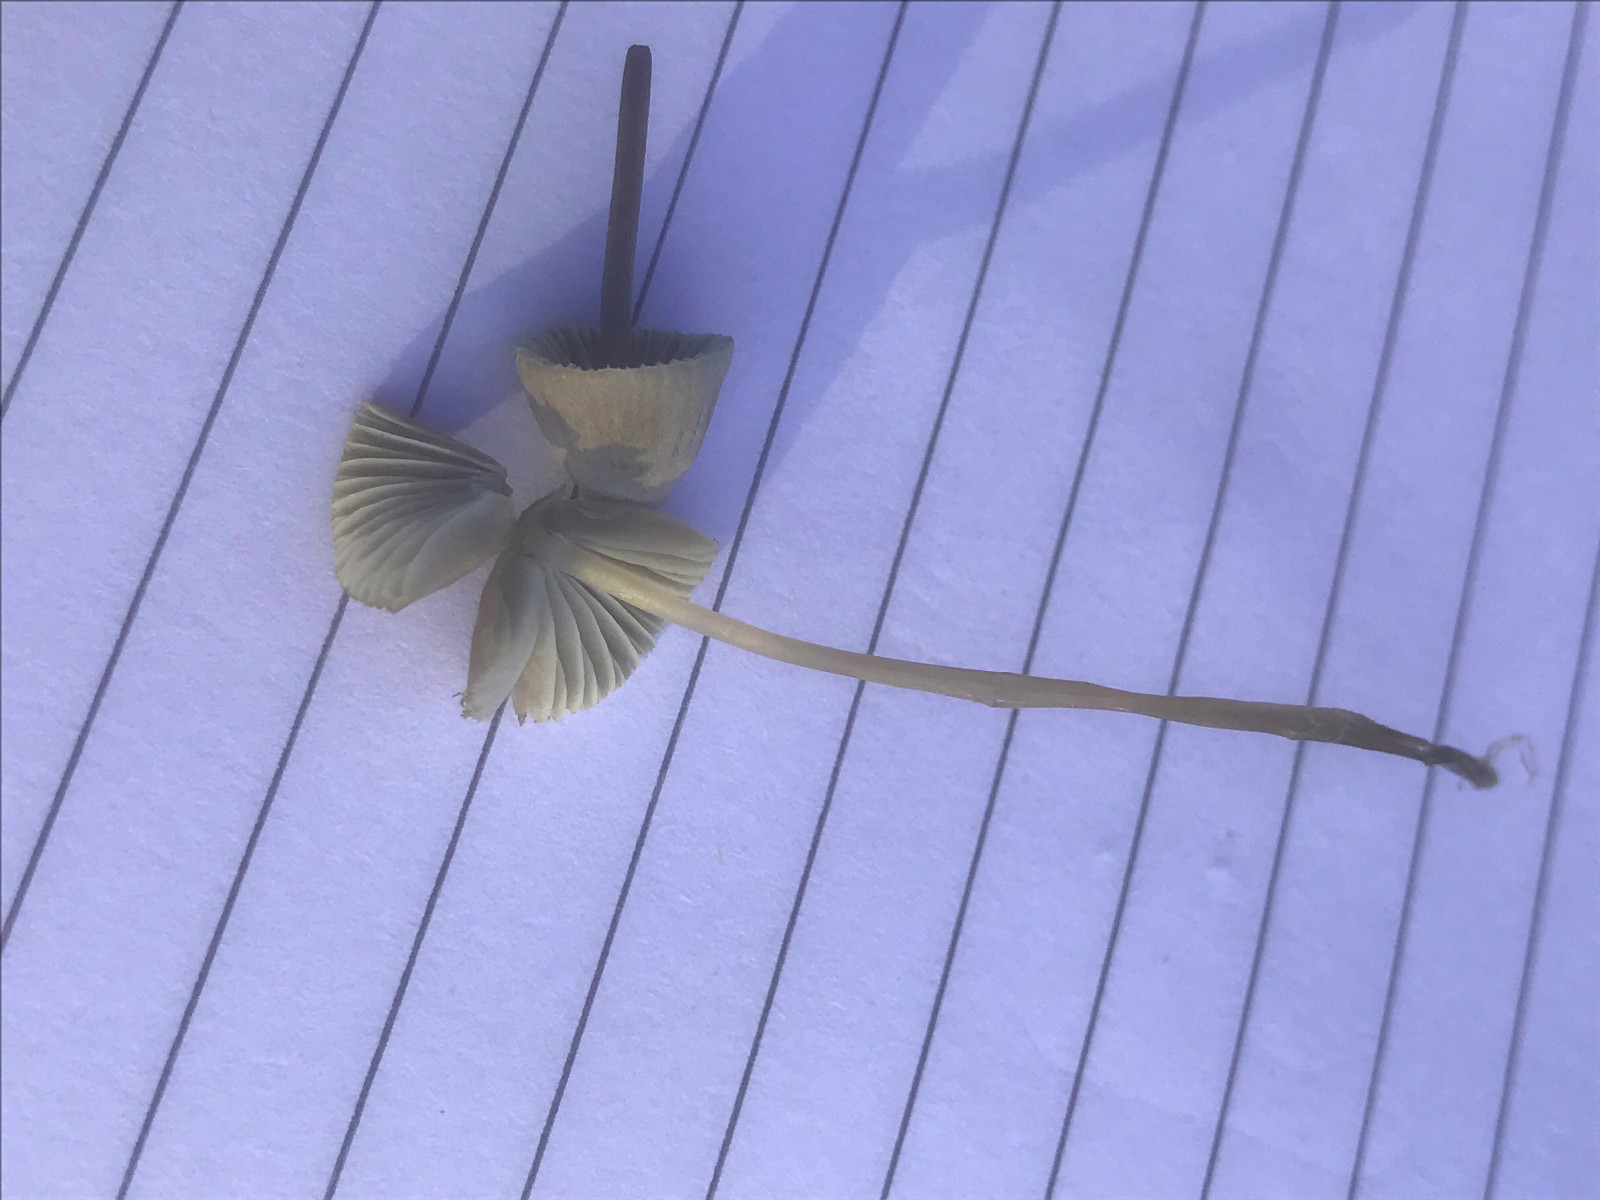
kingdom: Fungi
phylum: Basidiomycota
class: Agaricomycetes
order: Agaricales
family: Mycenaceae
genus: Mycena
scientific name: Mycena
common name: huesvamp
